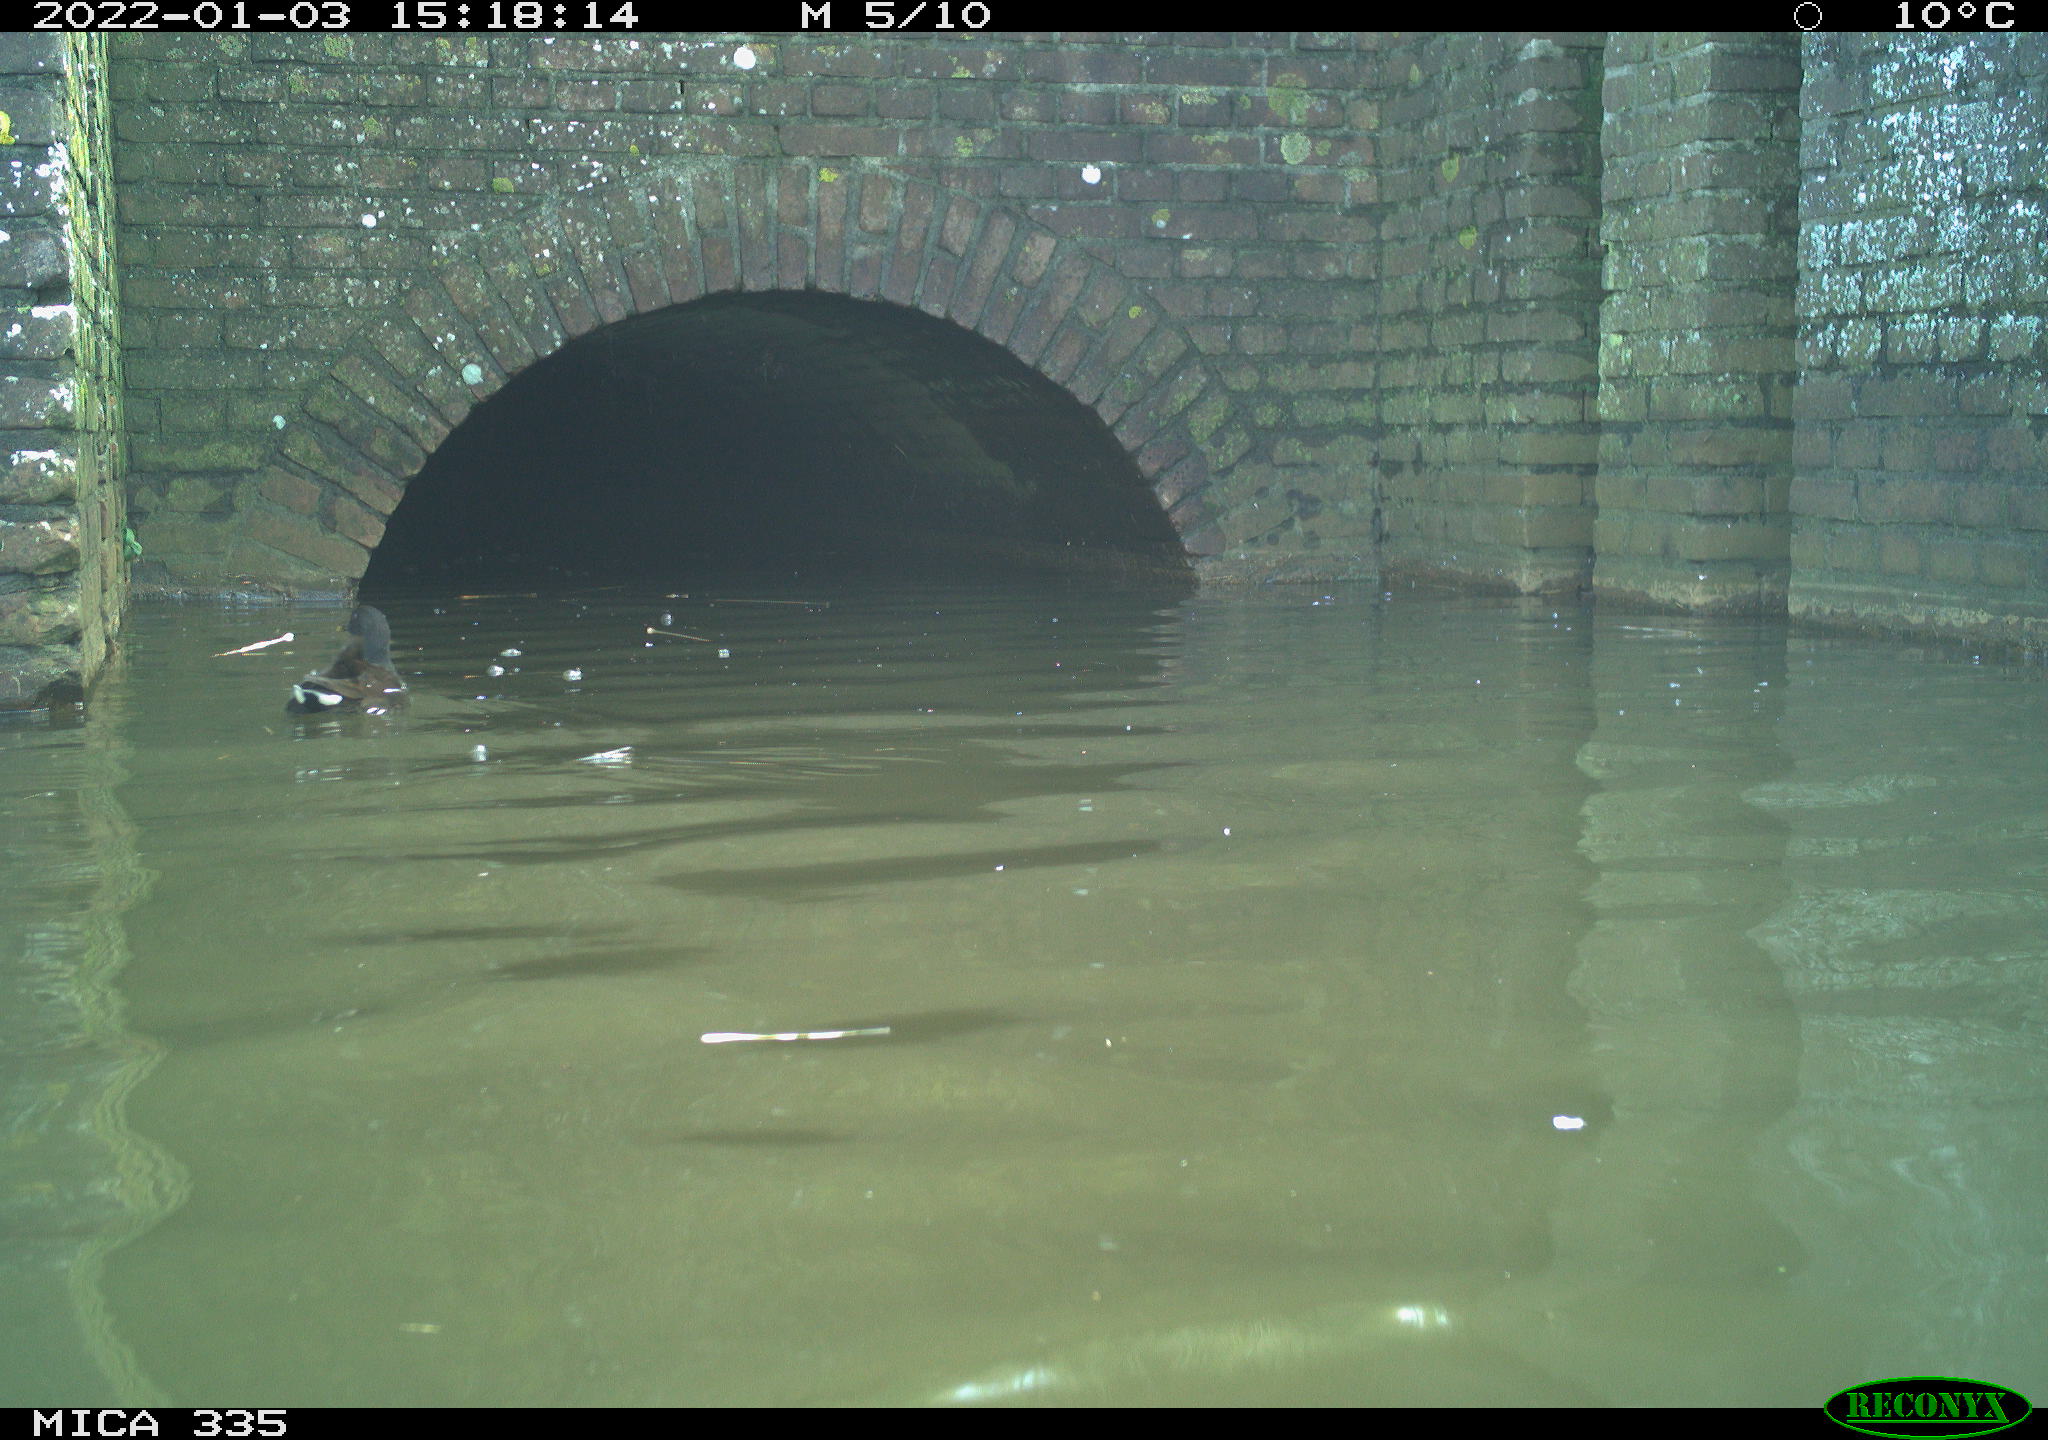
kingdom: Animalia
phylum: Chordata
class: Aves
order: Gruiformes
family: Rallidae
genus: Gallinula
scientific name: Gallinula chloropus
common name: Common moorhen
